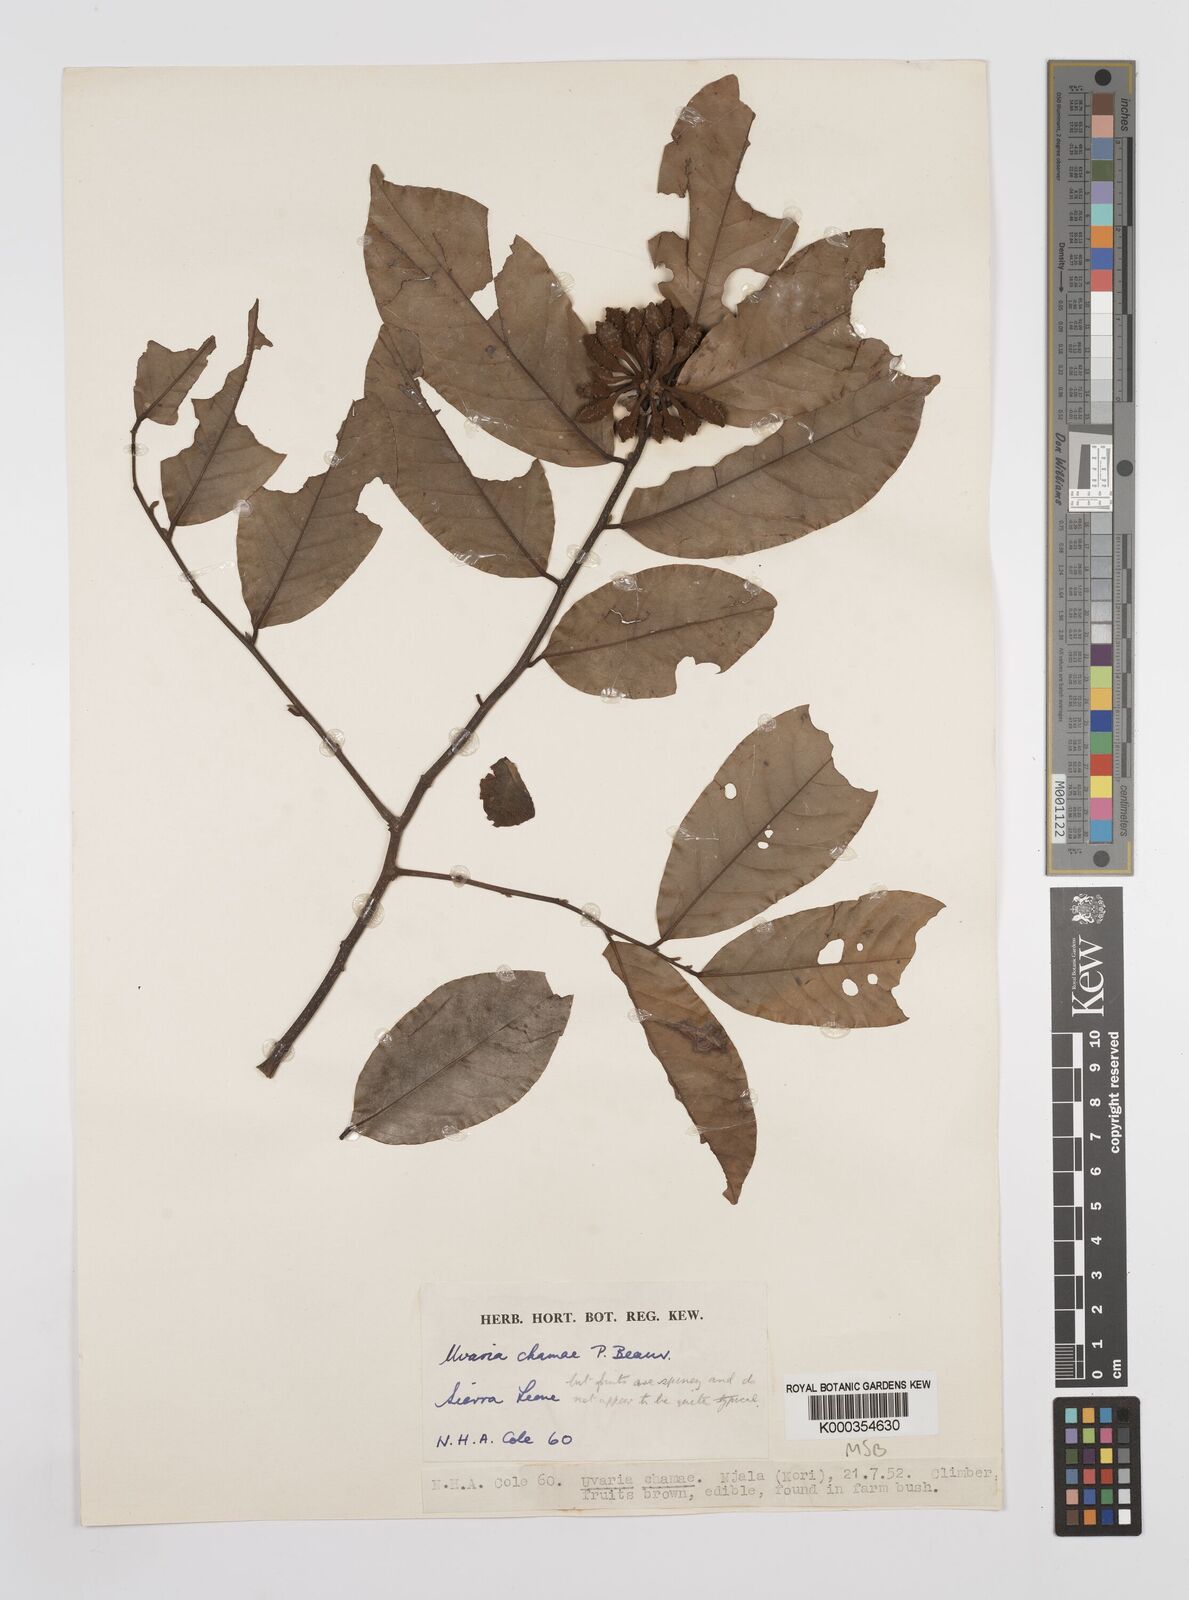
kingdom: Plantae
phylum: Tracheophyta
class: Magnoliopsida
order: Magnoliales
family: Annonaceae
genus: Uvaria
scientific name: Uvaria chamae
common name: Finger-root
